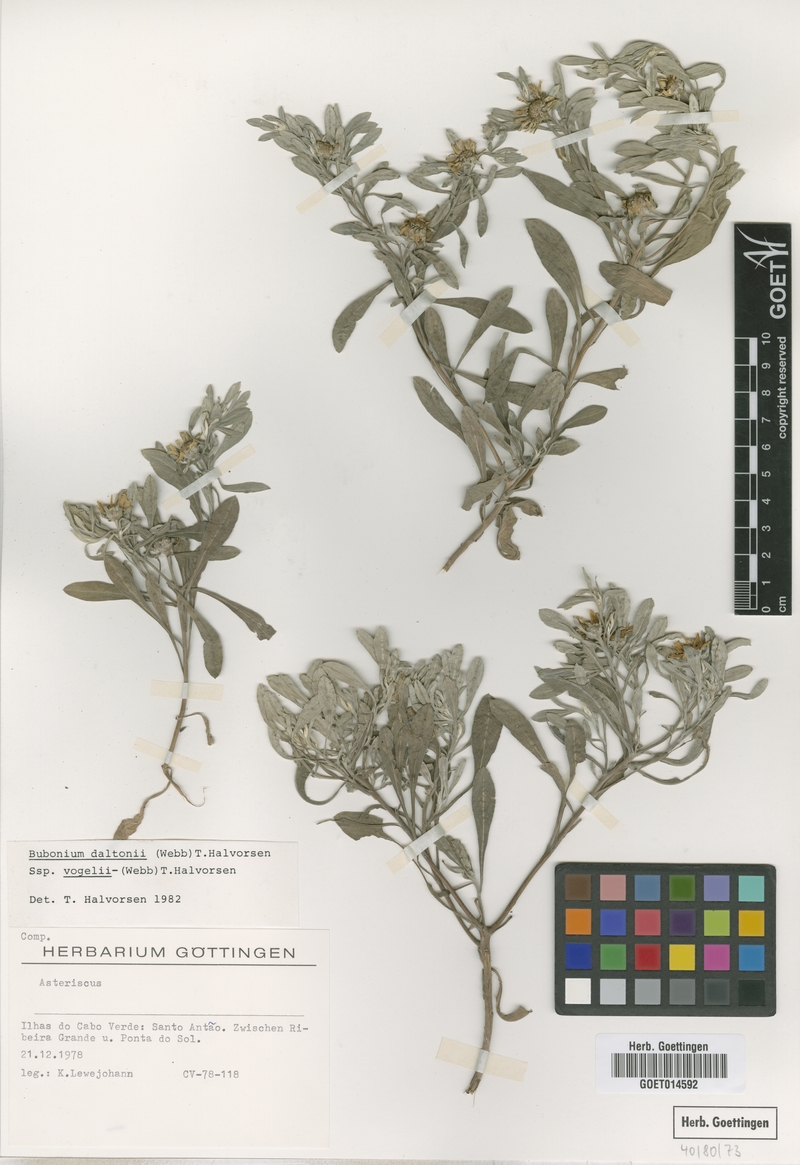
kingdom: Plantae
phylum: Tracheophyta
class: Magnoliopsida
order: Asterales
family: Asteraceae
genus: Asteriscus
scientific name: Asteriscus daltonii
